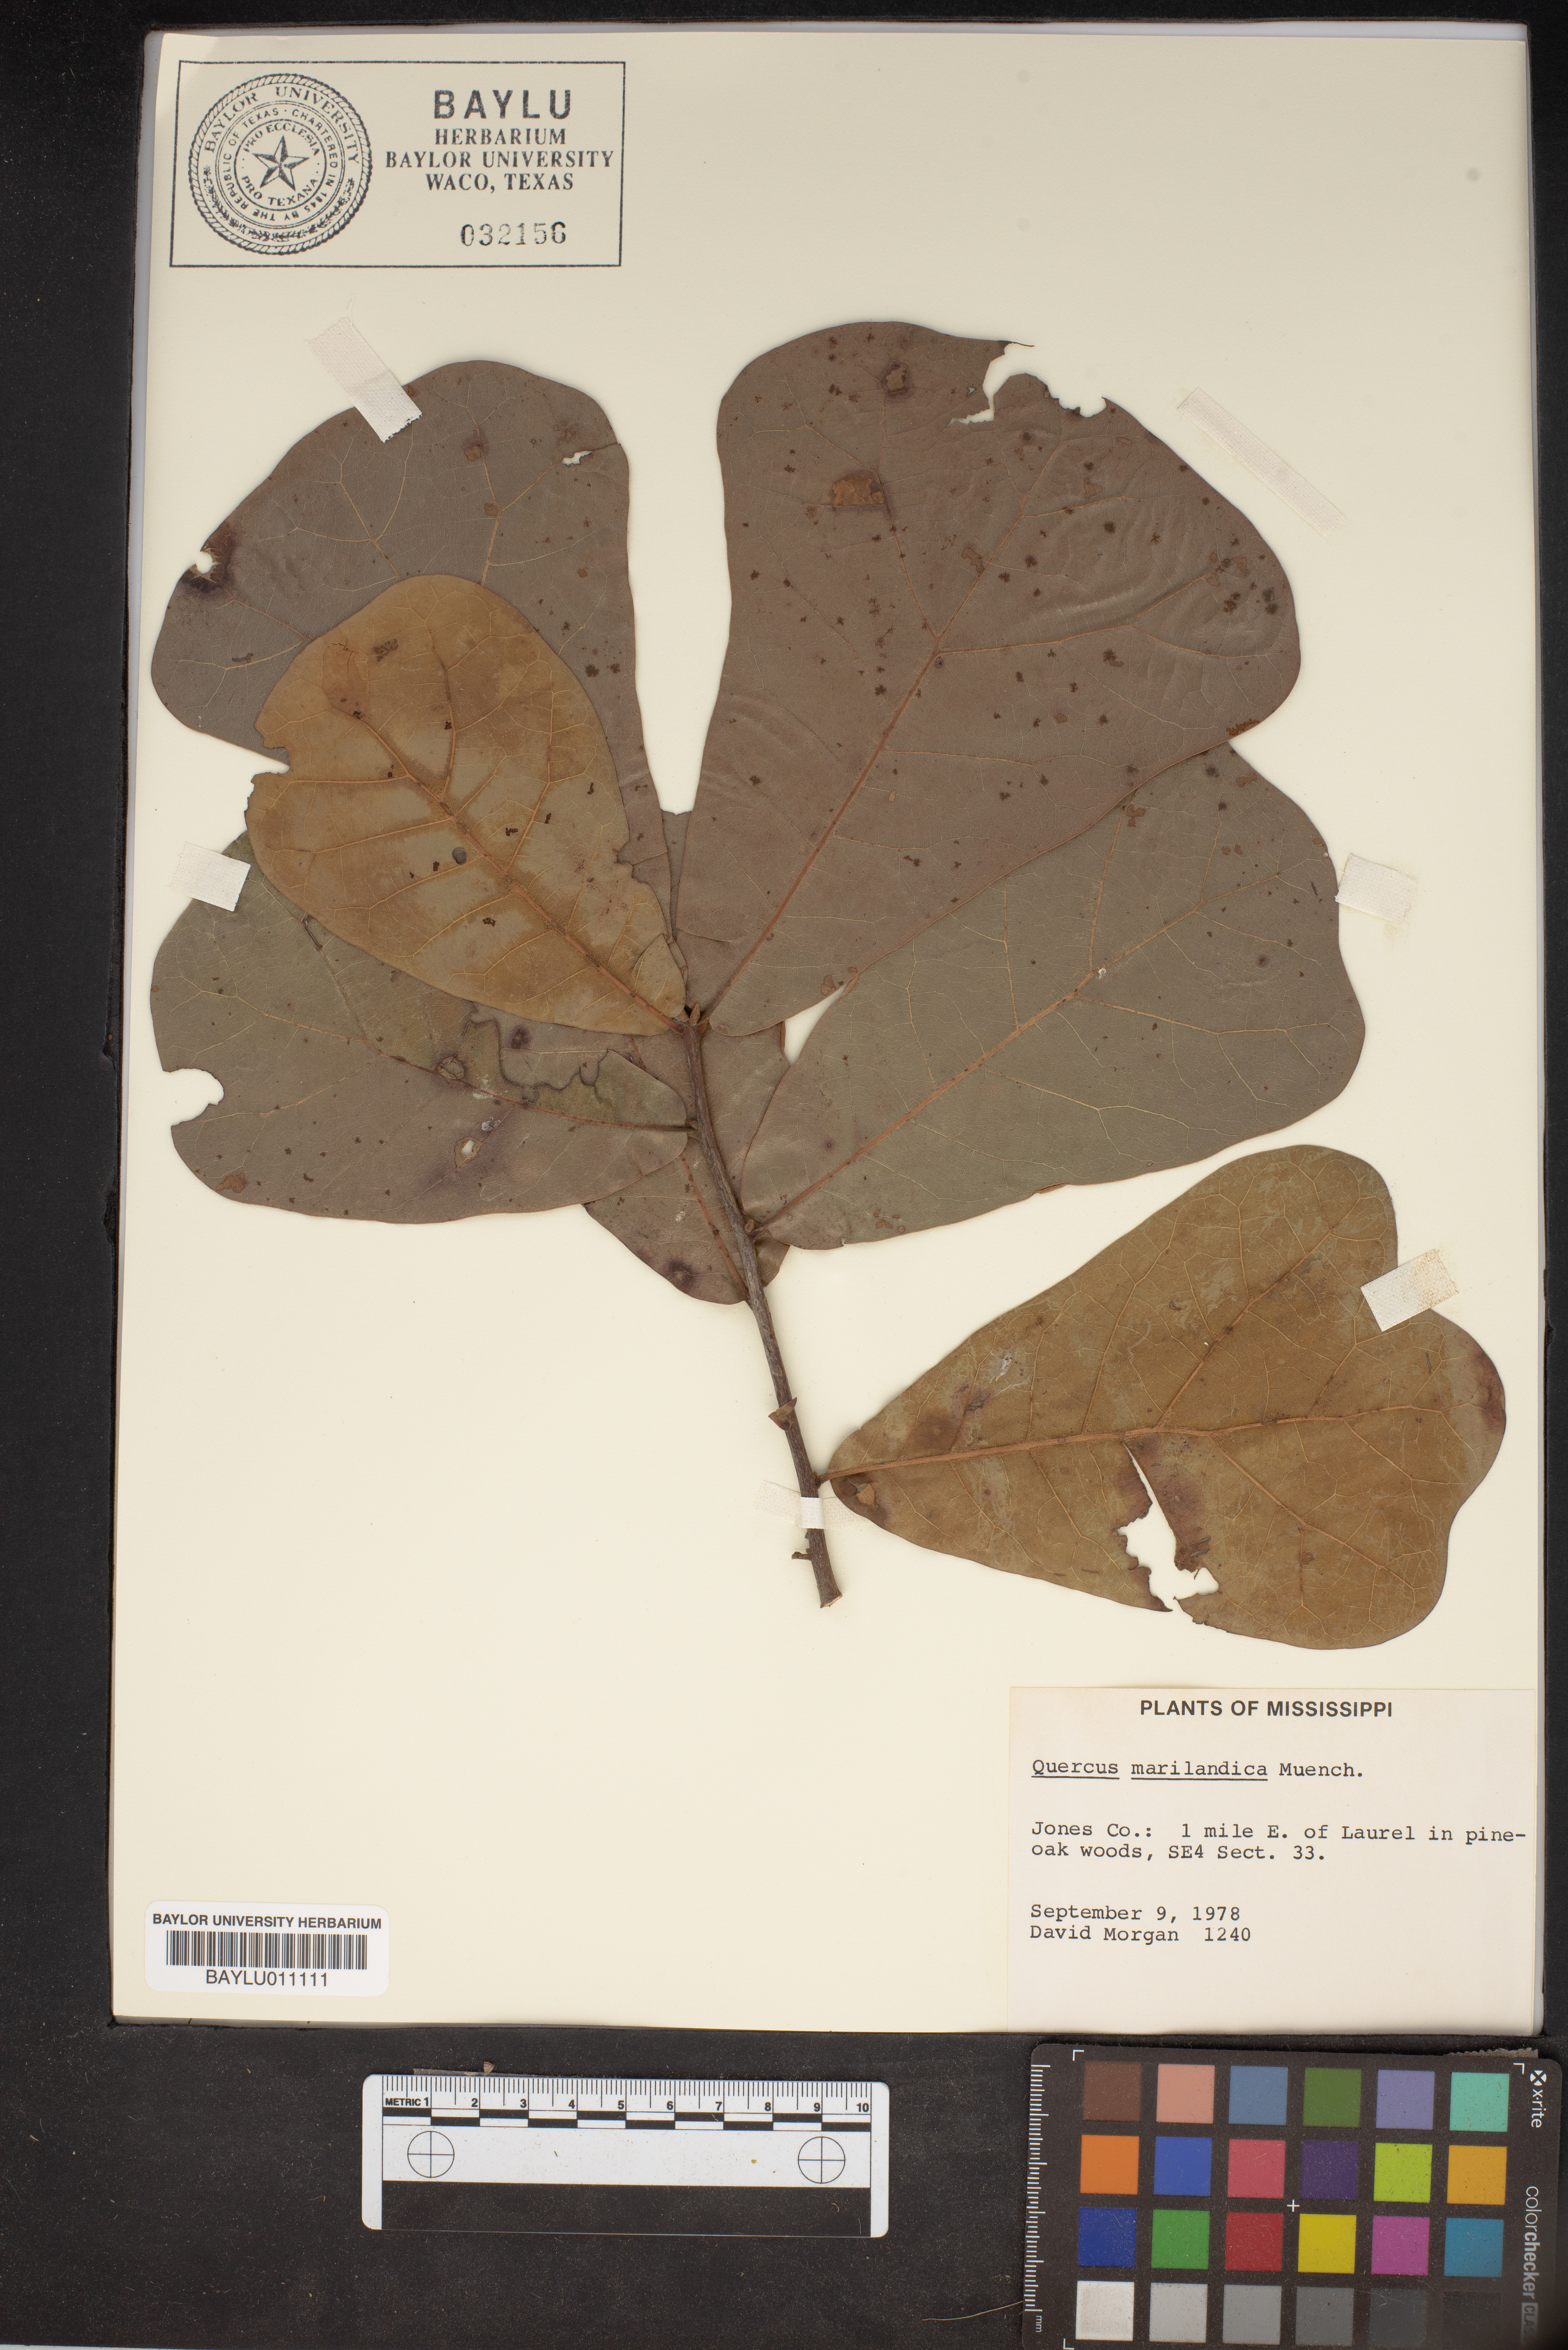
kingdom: Plantae
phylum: Tracheophyta
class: Magnoliopsida
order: Fagales
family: Fagaceae
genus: Quercus
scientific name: Quercus marilandica
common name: Blackjack oak
